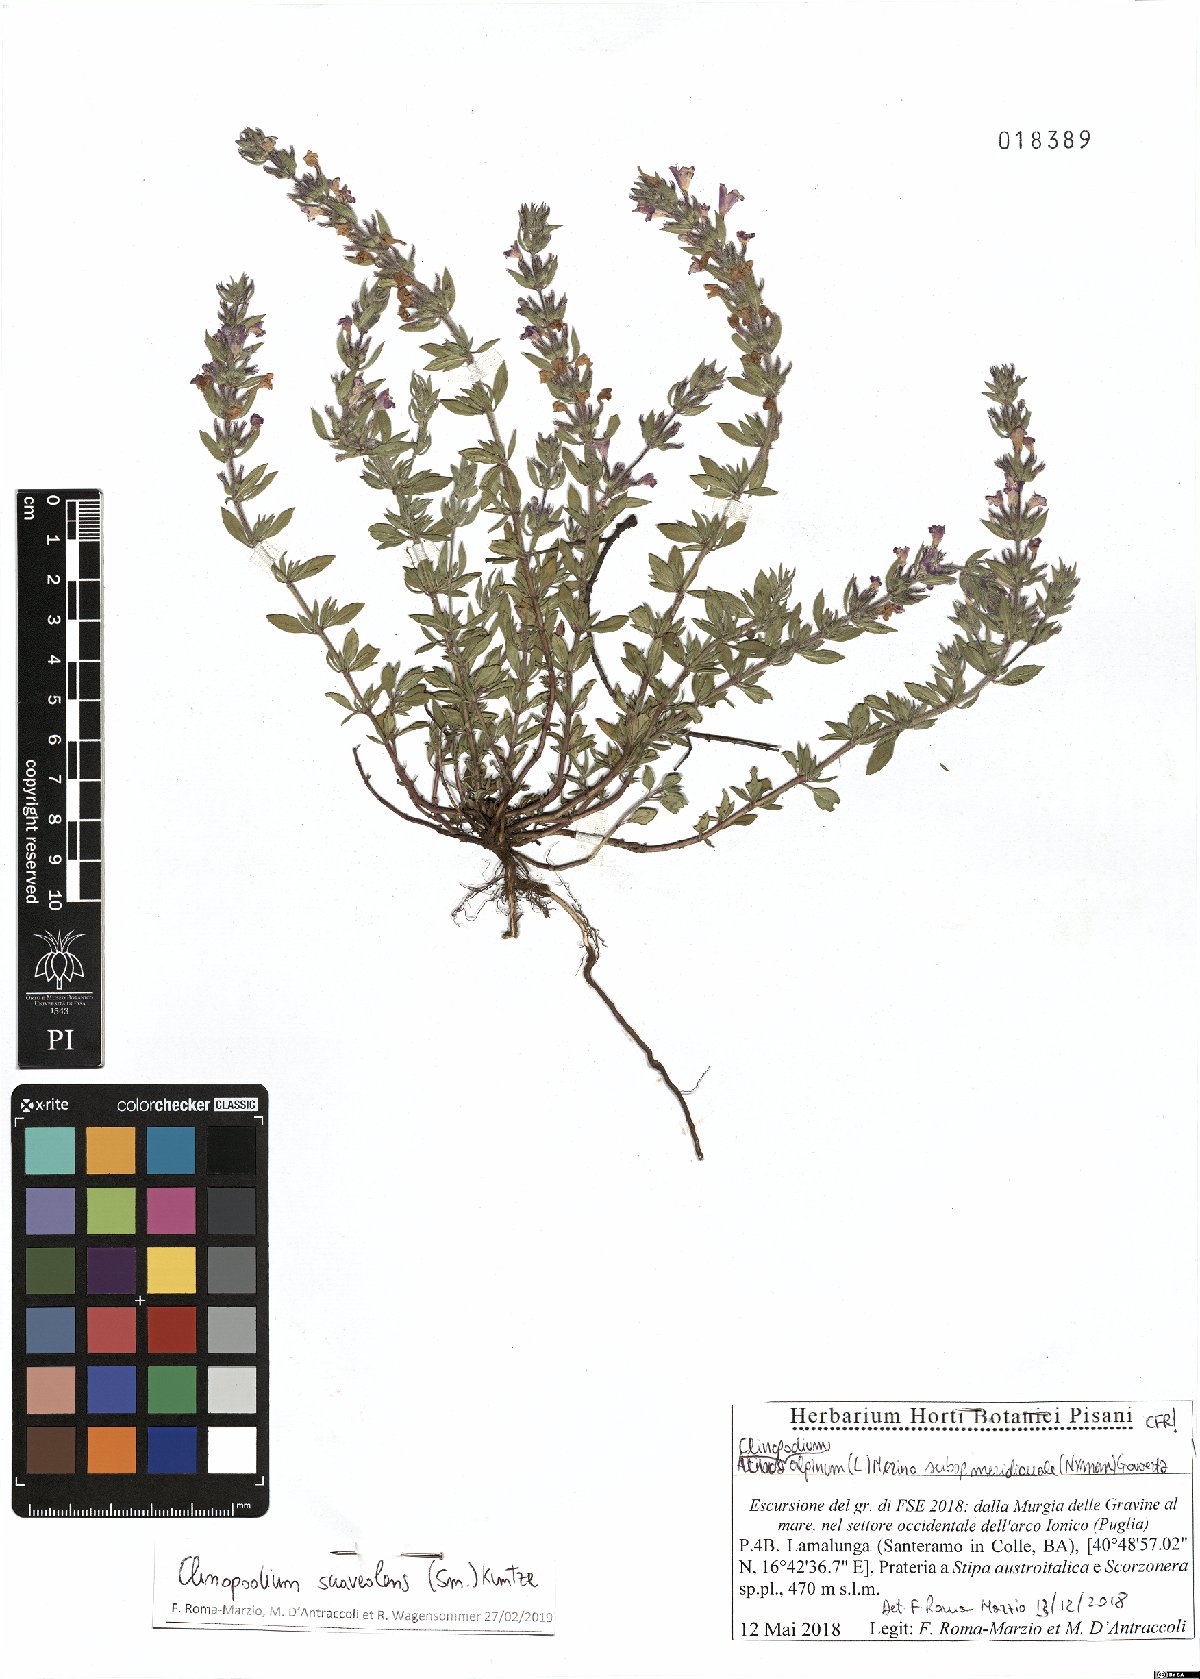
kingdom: Plantae
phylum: Tracheophyta
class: Magnoliopsida
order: Lamiales
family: Lamiaceae
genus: Clinopodium
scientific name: Clinopodium suaveolens
